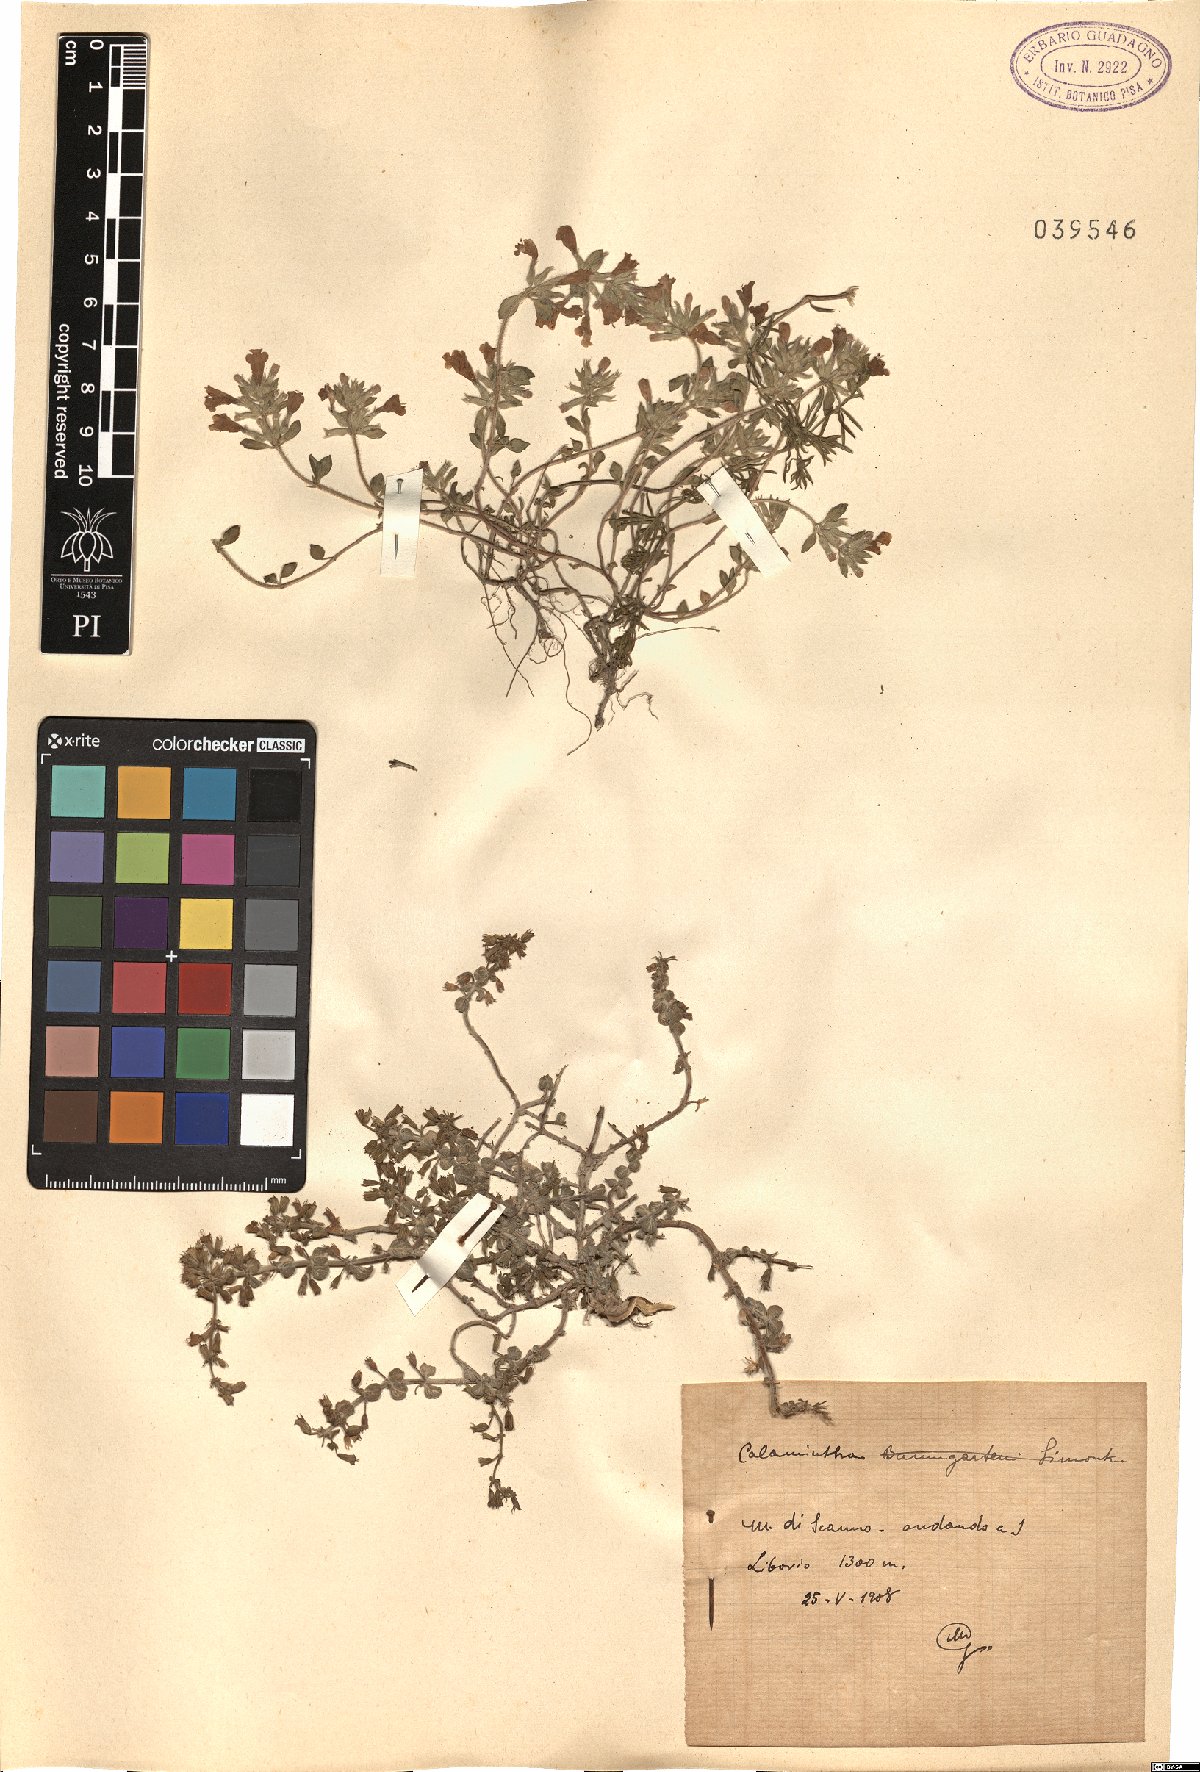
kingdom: Plantae
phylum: Tracheophyta
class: Magnoliopsida
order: Lamiales
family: Lamiaceae
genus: Calamintha
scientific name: Calamintha
